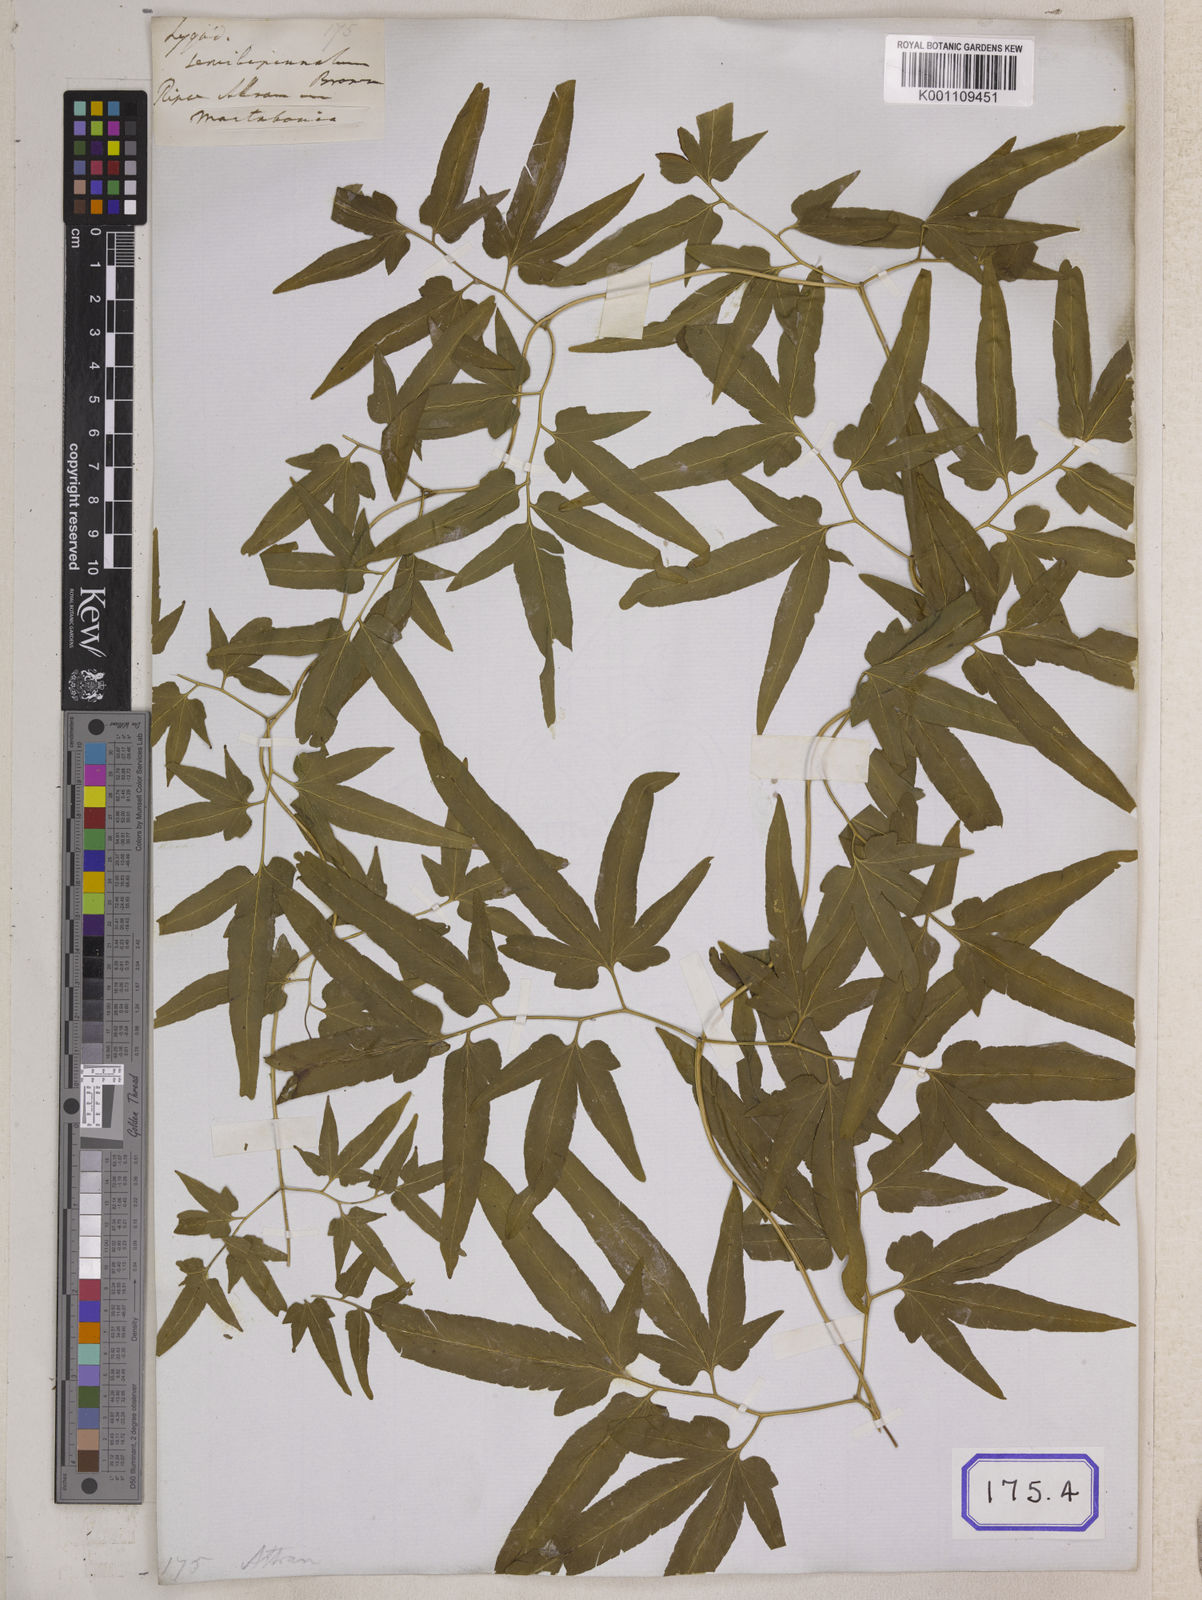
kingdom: Plantae
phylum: Tracheophyta
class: Polypodiopsida
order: Schizaeales
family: Lygodiaceae
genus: Lygodium
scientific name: Lygodium flexuosum
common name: Maidenhair creeper
